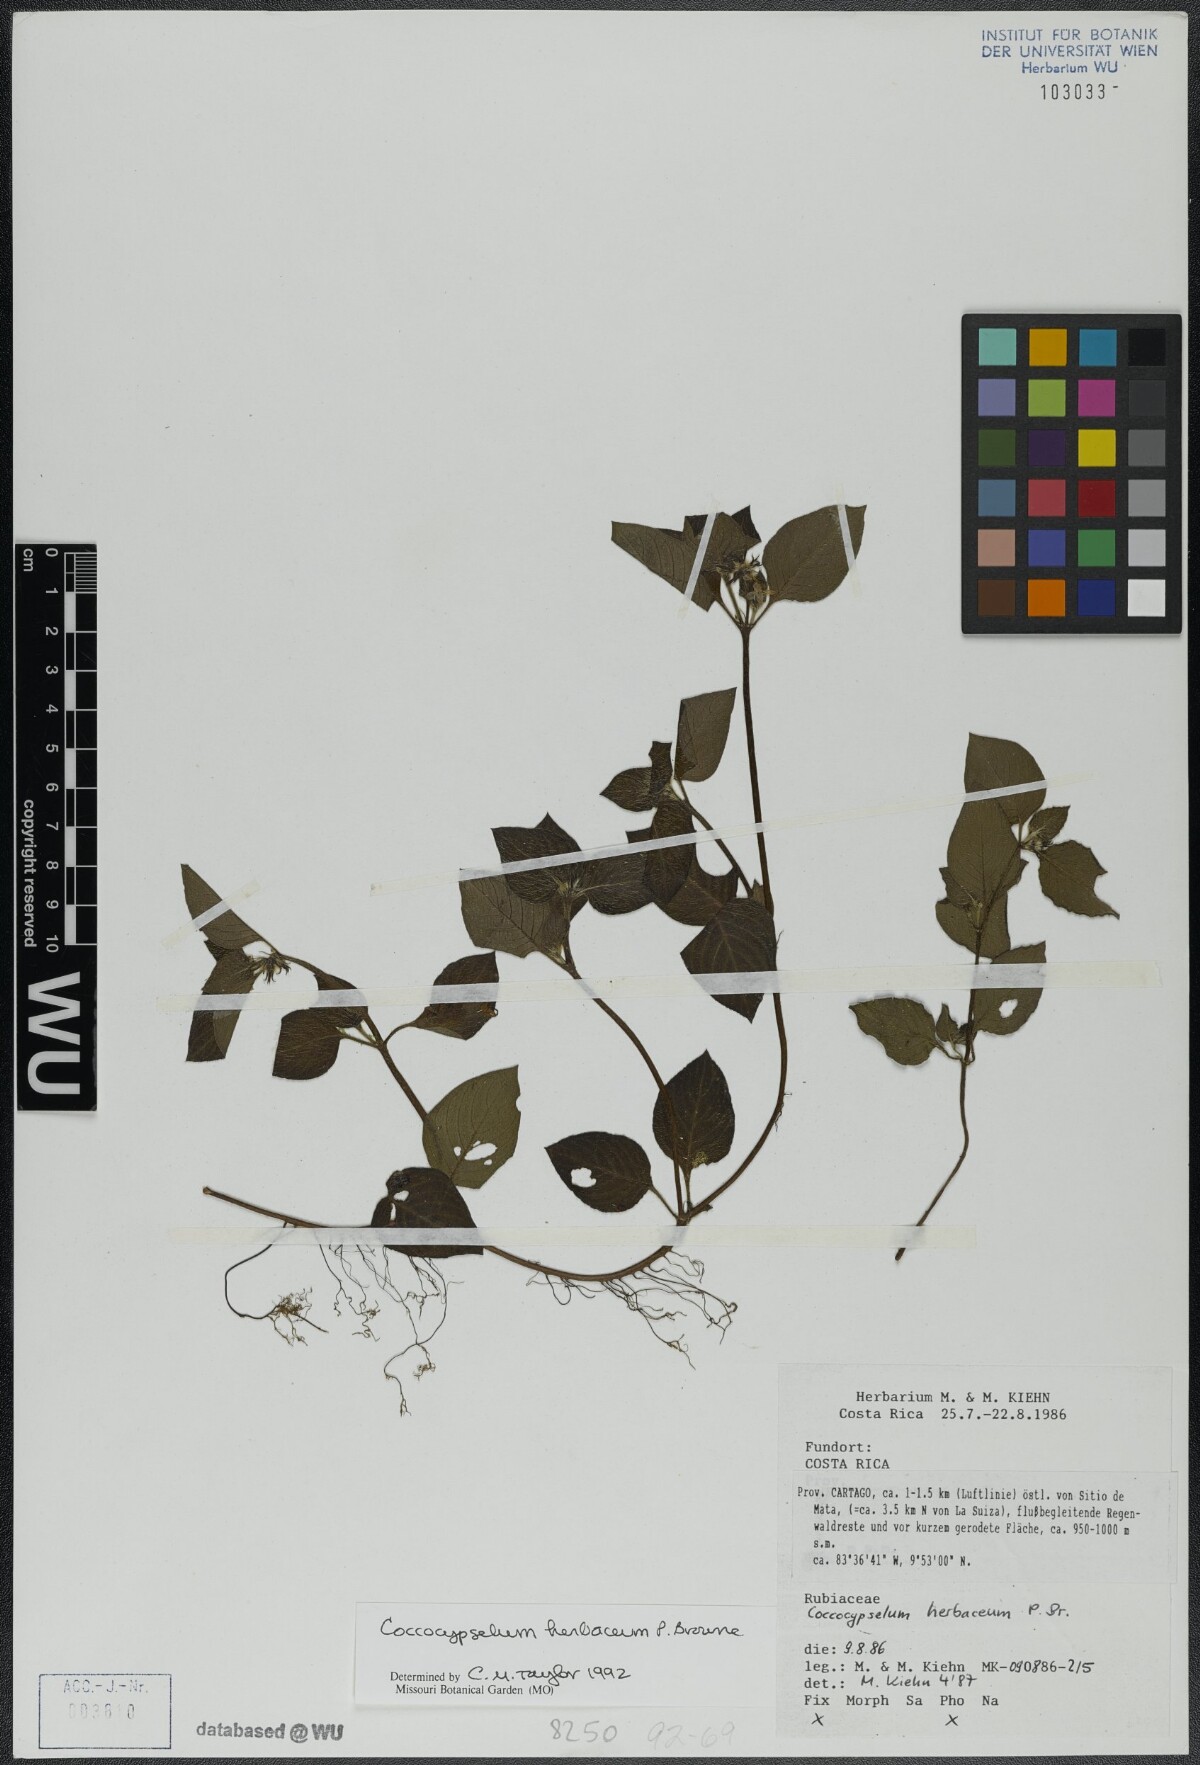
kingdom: Plantae
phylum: Tracheophyta
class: Magnoliopsida
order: Gentianales
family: Rubiaceae
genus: Coccocypselum
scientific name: Coccocypselum herbaceum
